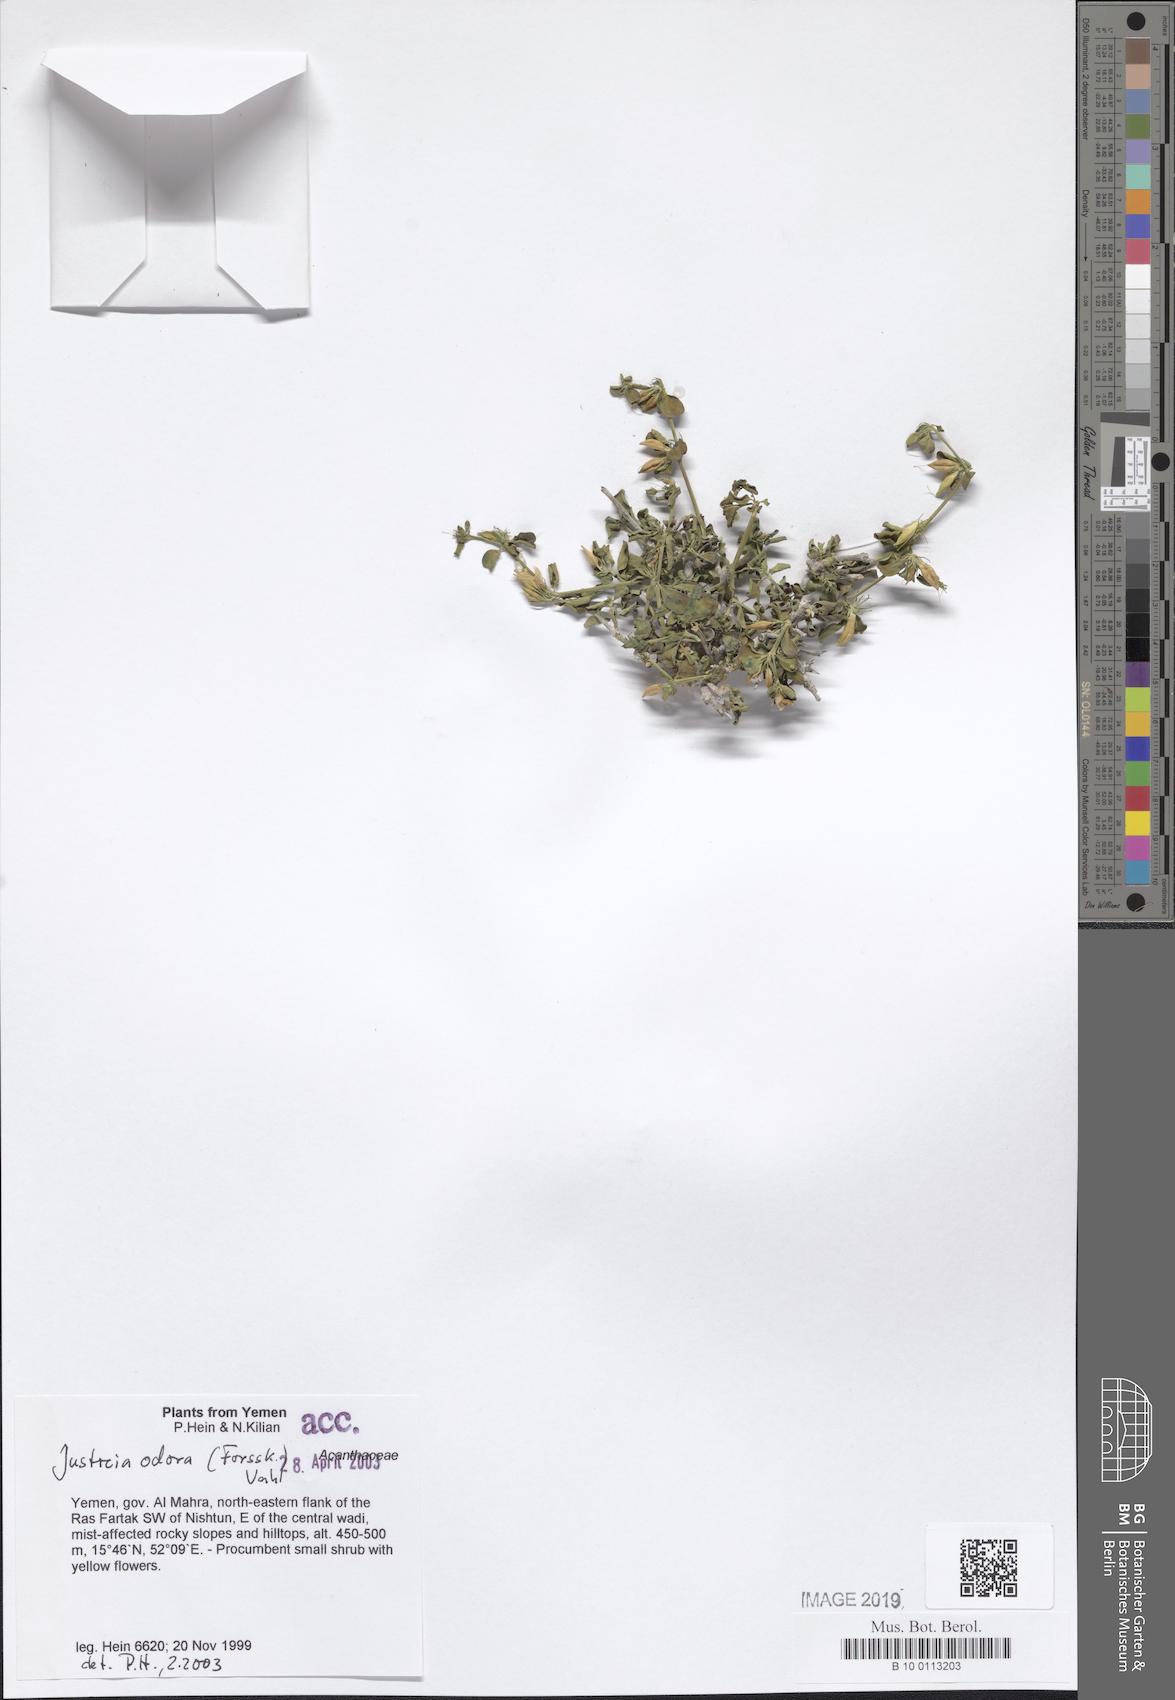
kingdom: Plantae
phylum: Tracheophyta
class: Magnoliopsida
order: Lamiales
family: Acanthaceae
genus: Justicia
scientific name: Justicia odora
